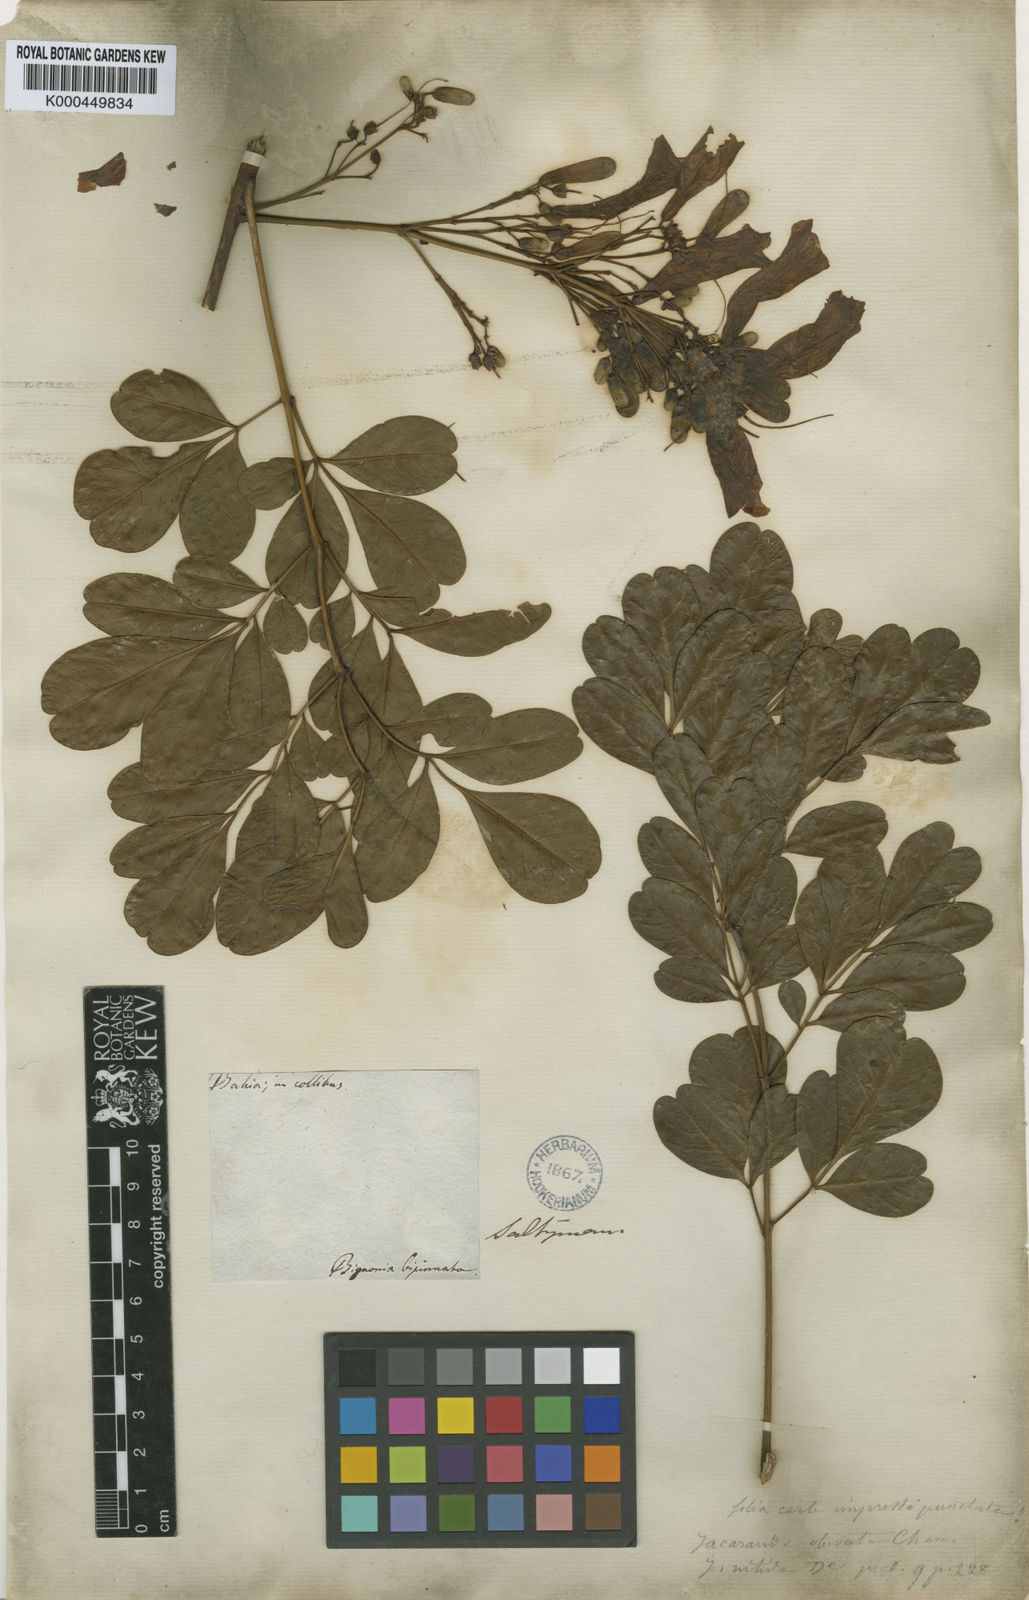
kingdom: Plantae
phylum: Tracheophyta
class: Magnoliopsida
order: Lamiales
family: Bignoniaceae
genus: Jacaranda
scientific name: Jacaranda obovata
